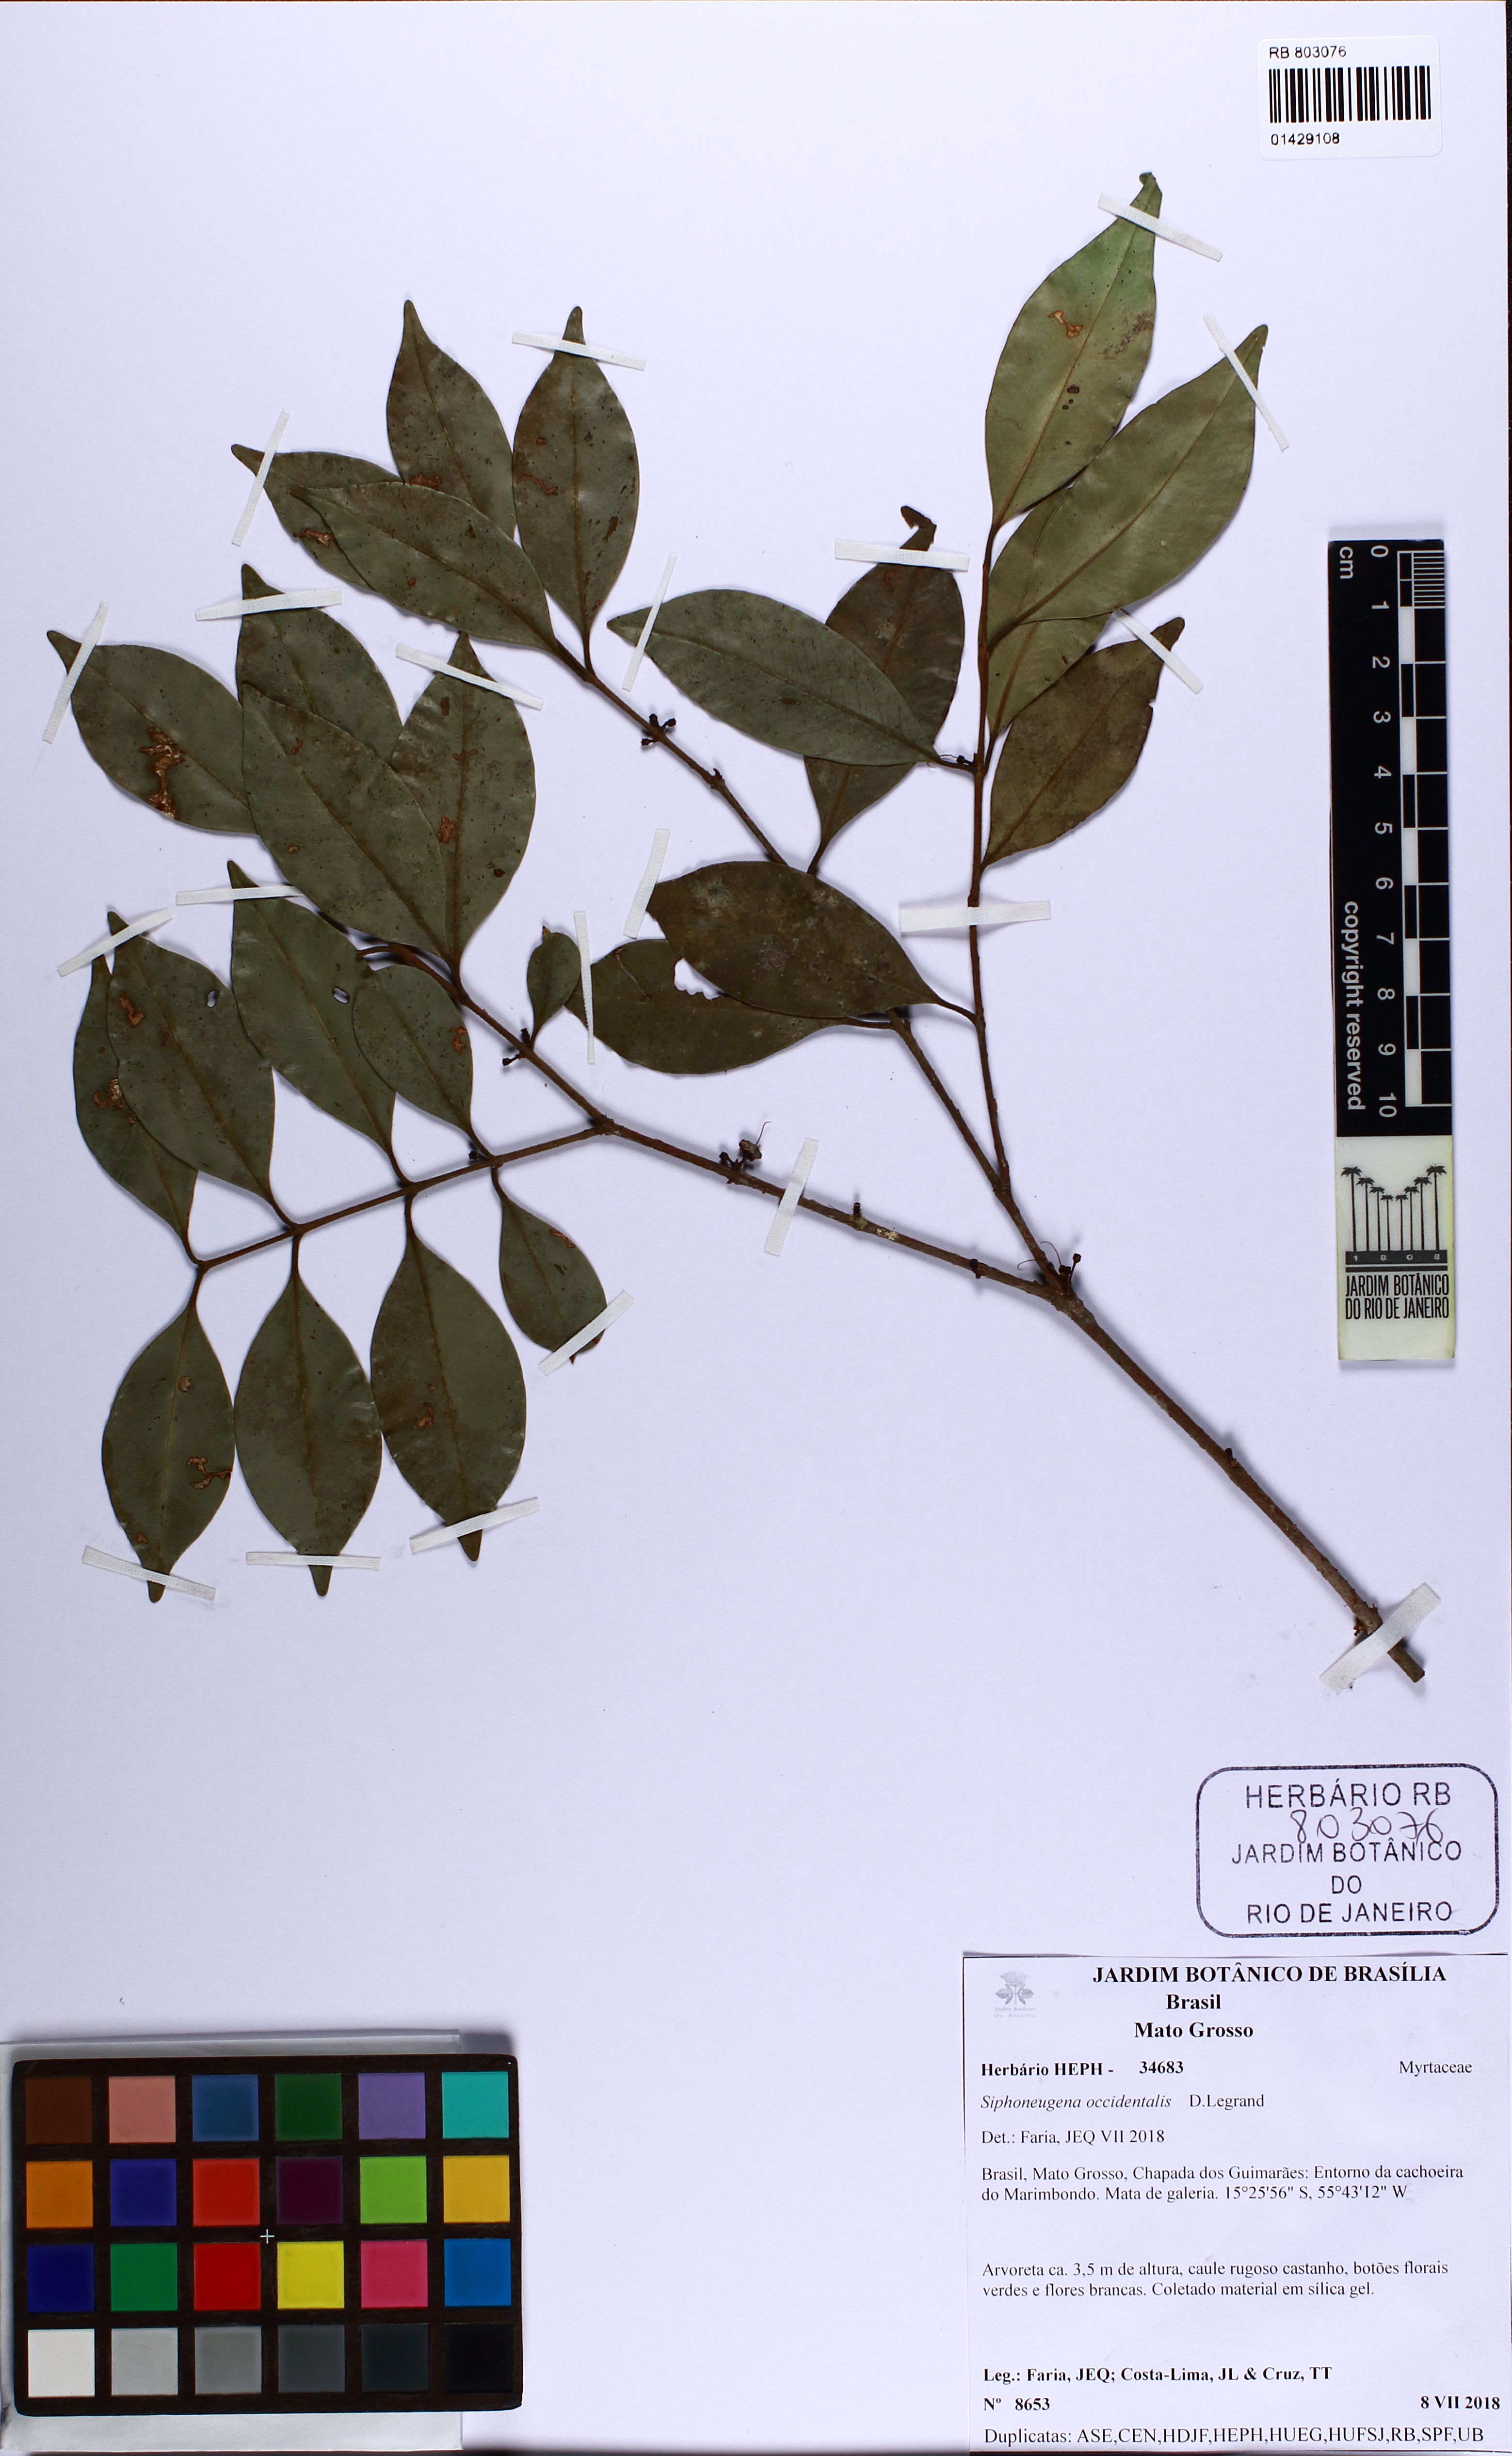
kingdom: Plantae
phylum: Tracheophyta
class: Magnoliopsida
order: Myrtales
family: Myrtaceae
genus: Siphoneugena
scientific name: Siphoneugena occidentalis
